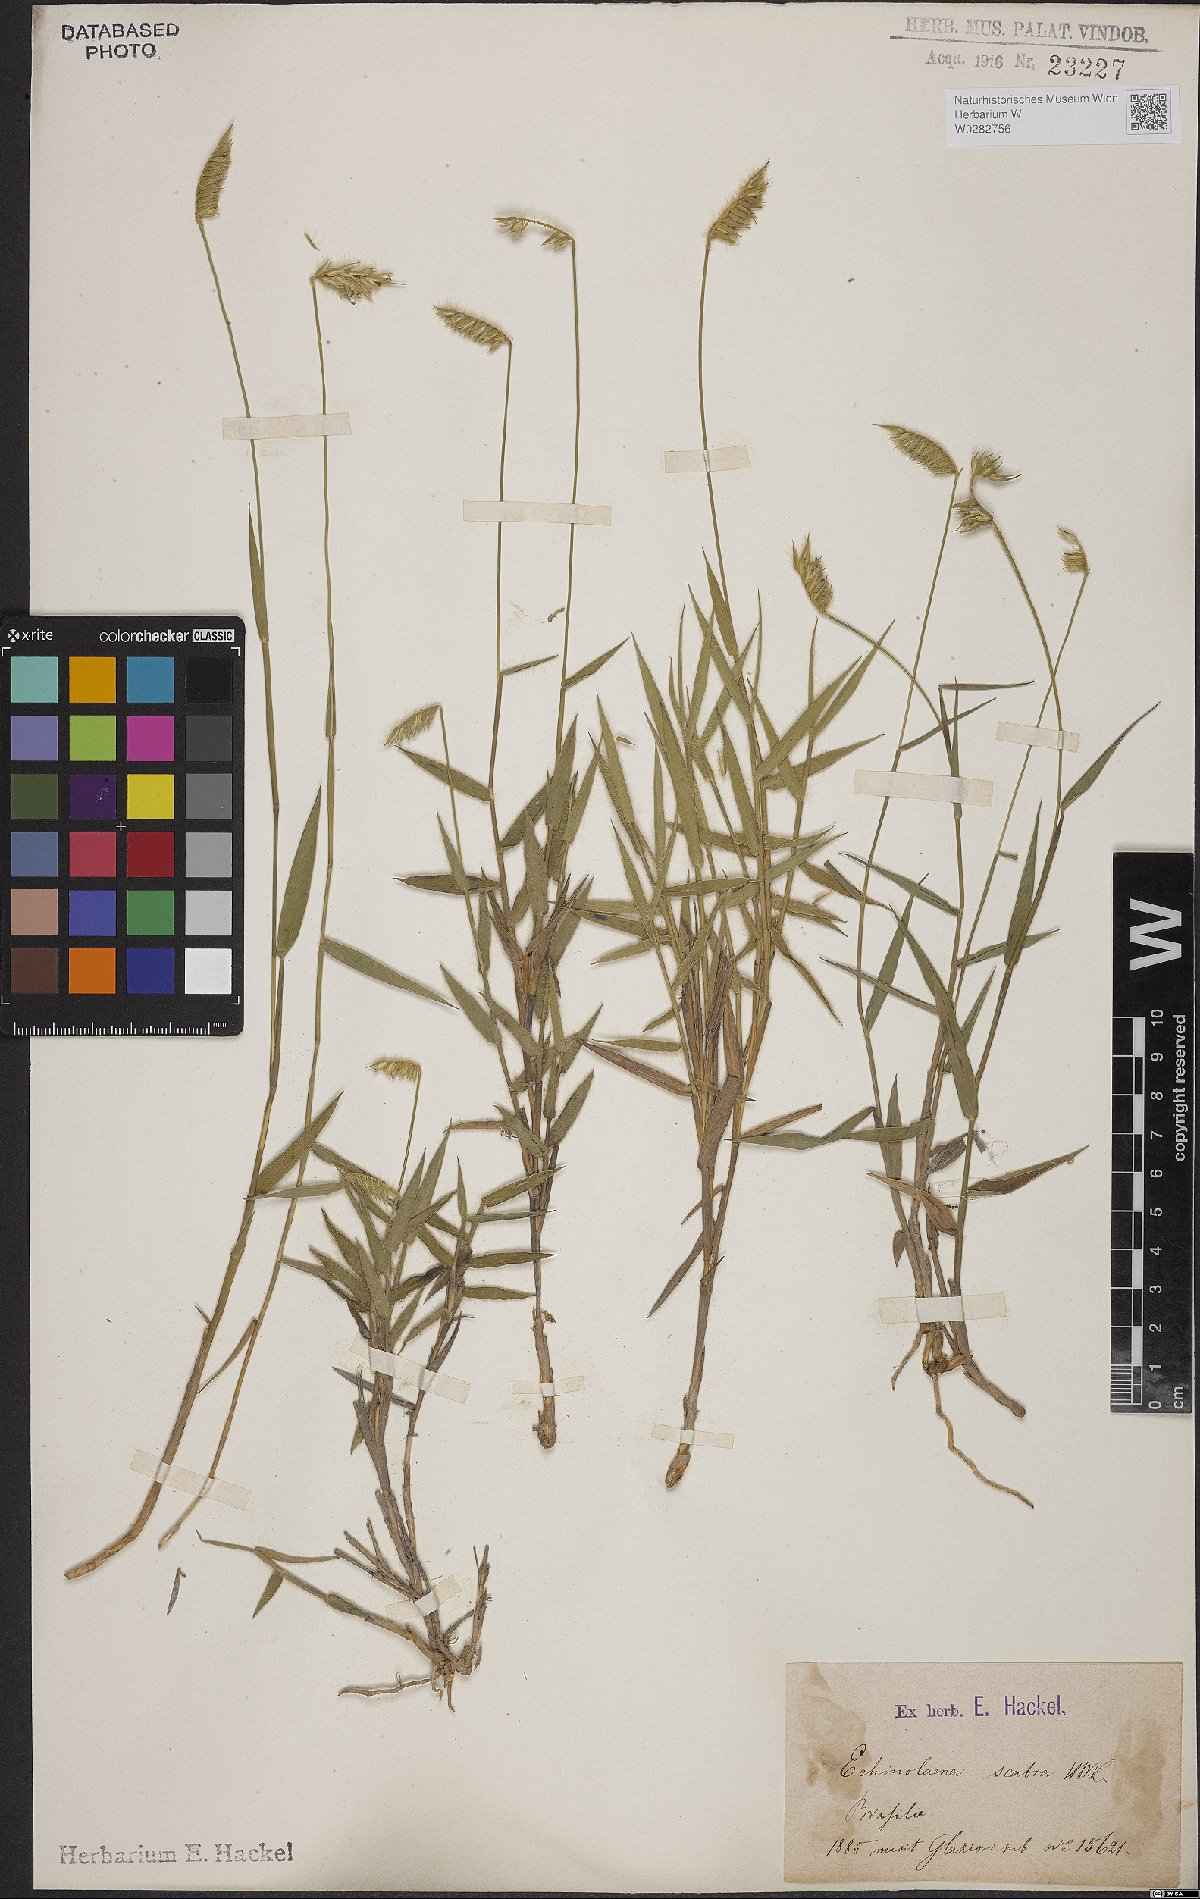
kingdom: Plantae
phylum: Tracheophyta
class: Liliopsida
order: Poales
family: Poaceae
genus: Echinolaena
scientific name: Echinolaena inflexa
